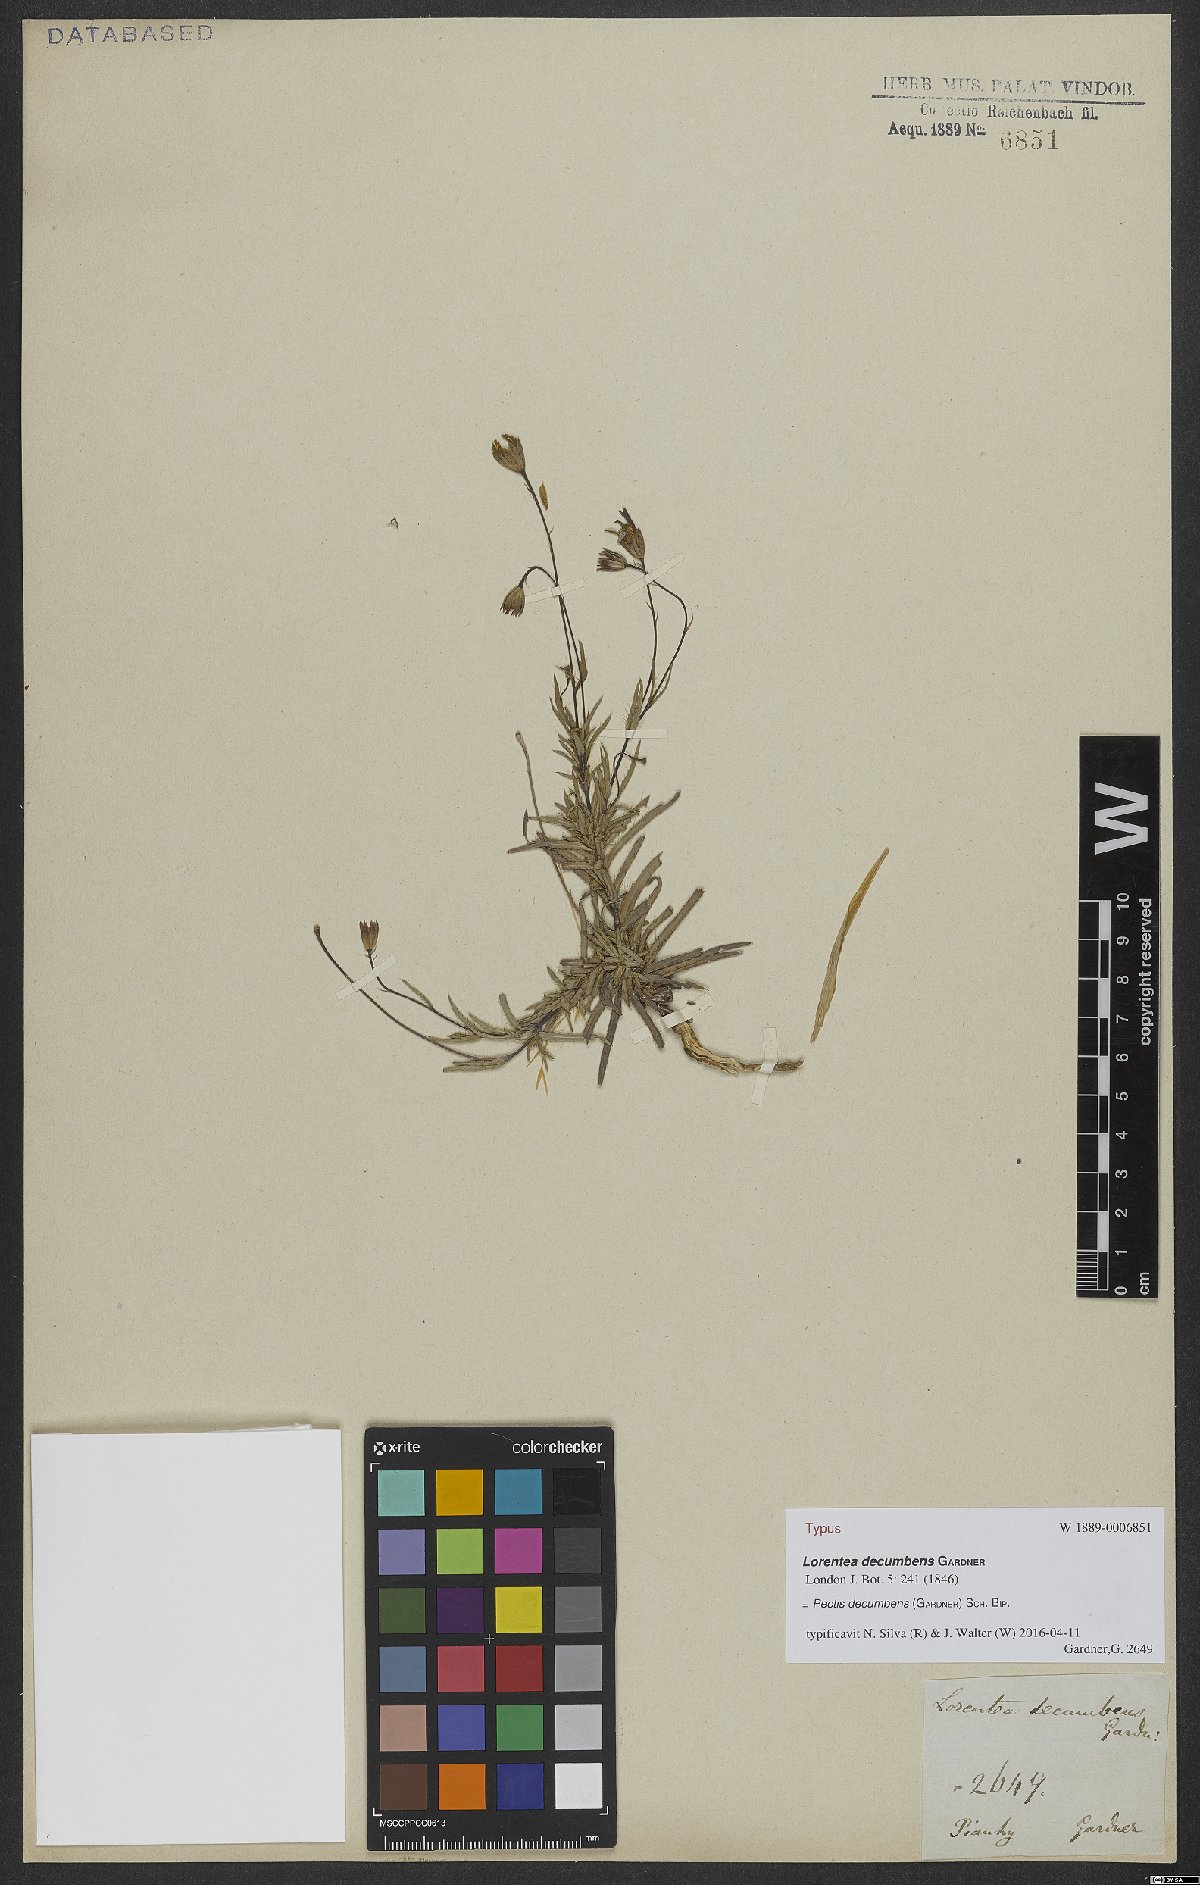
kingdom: Plantae
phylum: Tracheophyta
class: Magnoliopsida
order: Asterales
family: Asteraceae
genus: Pectis
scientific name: Pectis decumbens
